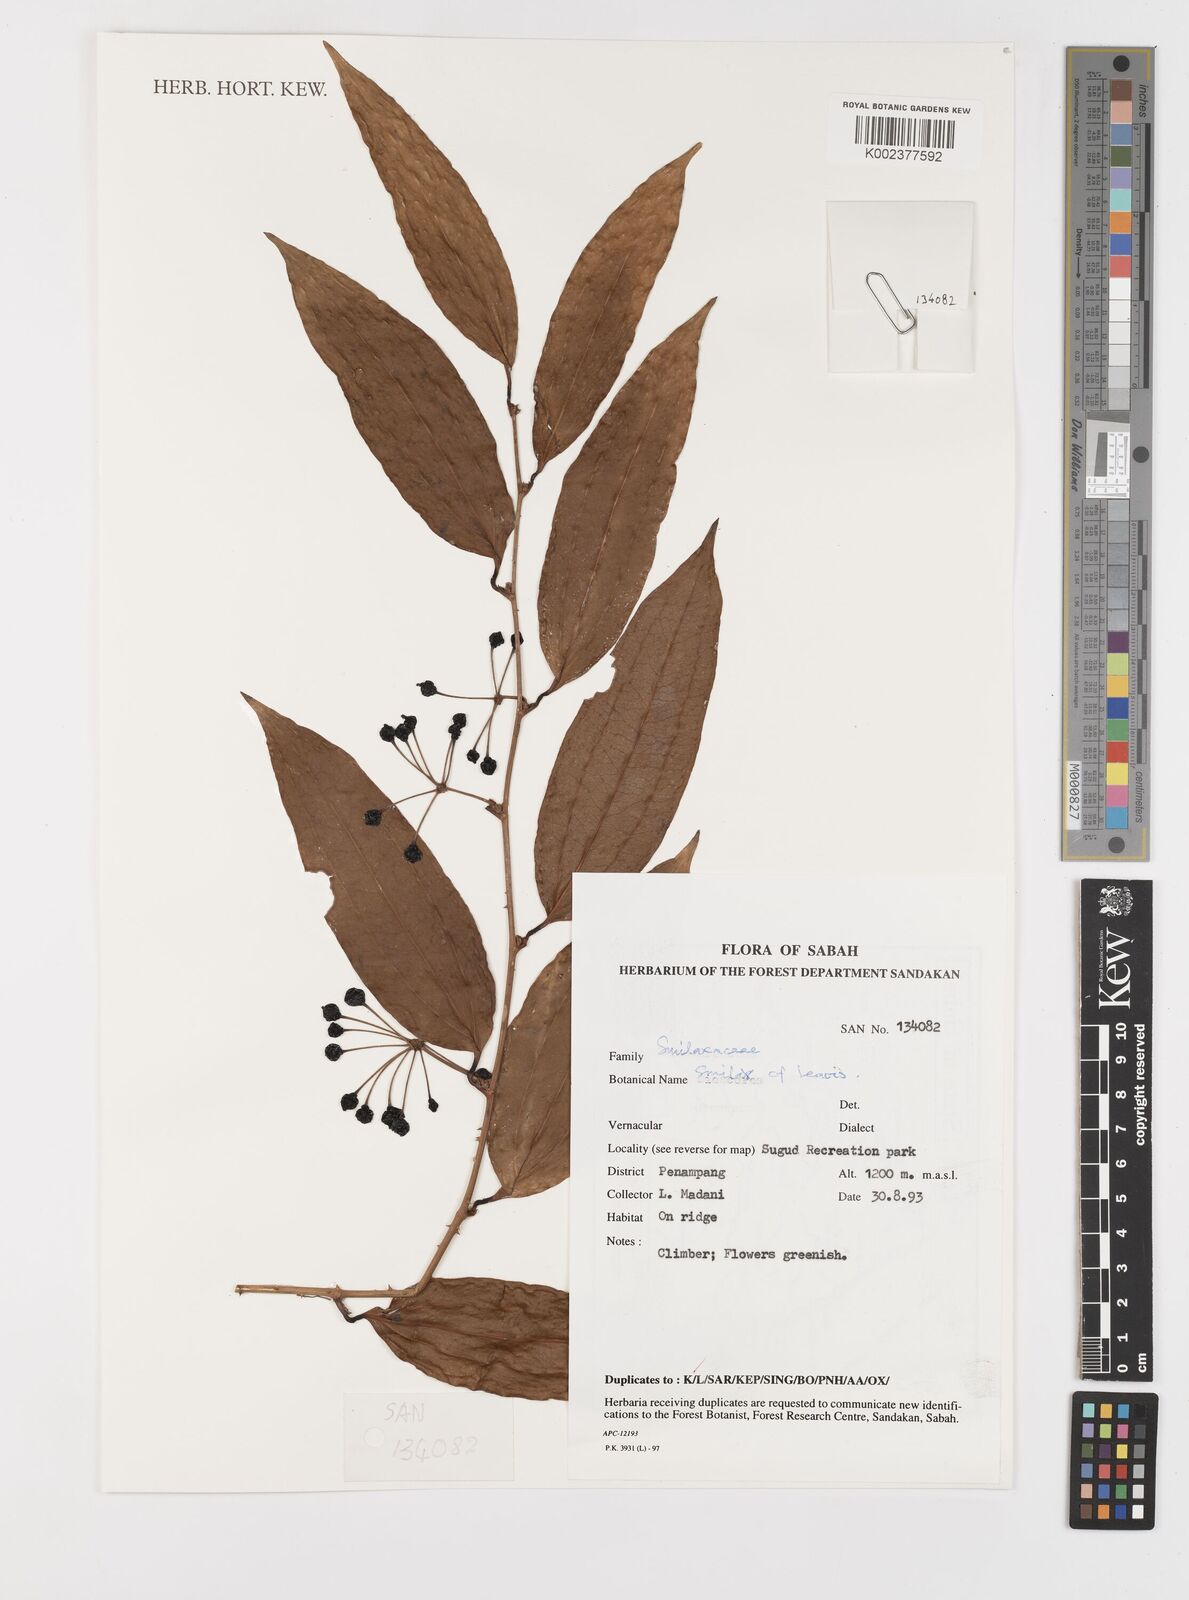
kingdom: Plantae
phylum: Tracheophyta
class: Liliopsida
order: Liliales
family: Smilacaceae
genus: Smilax
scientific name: Smilax laevis
